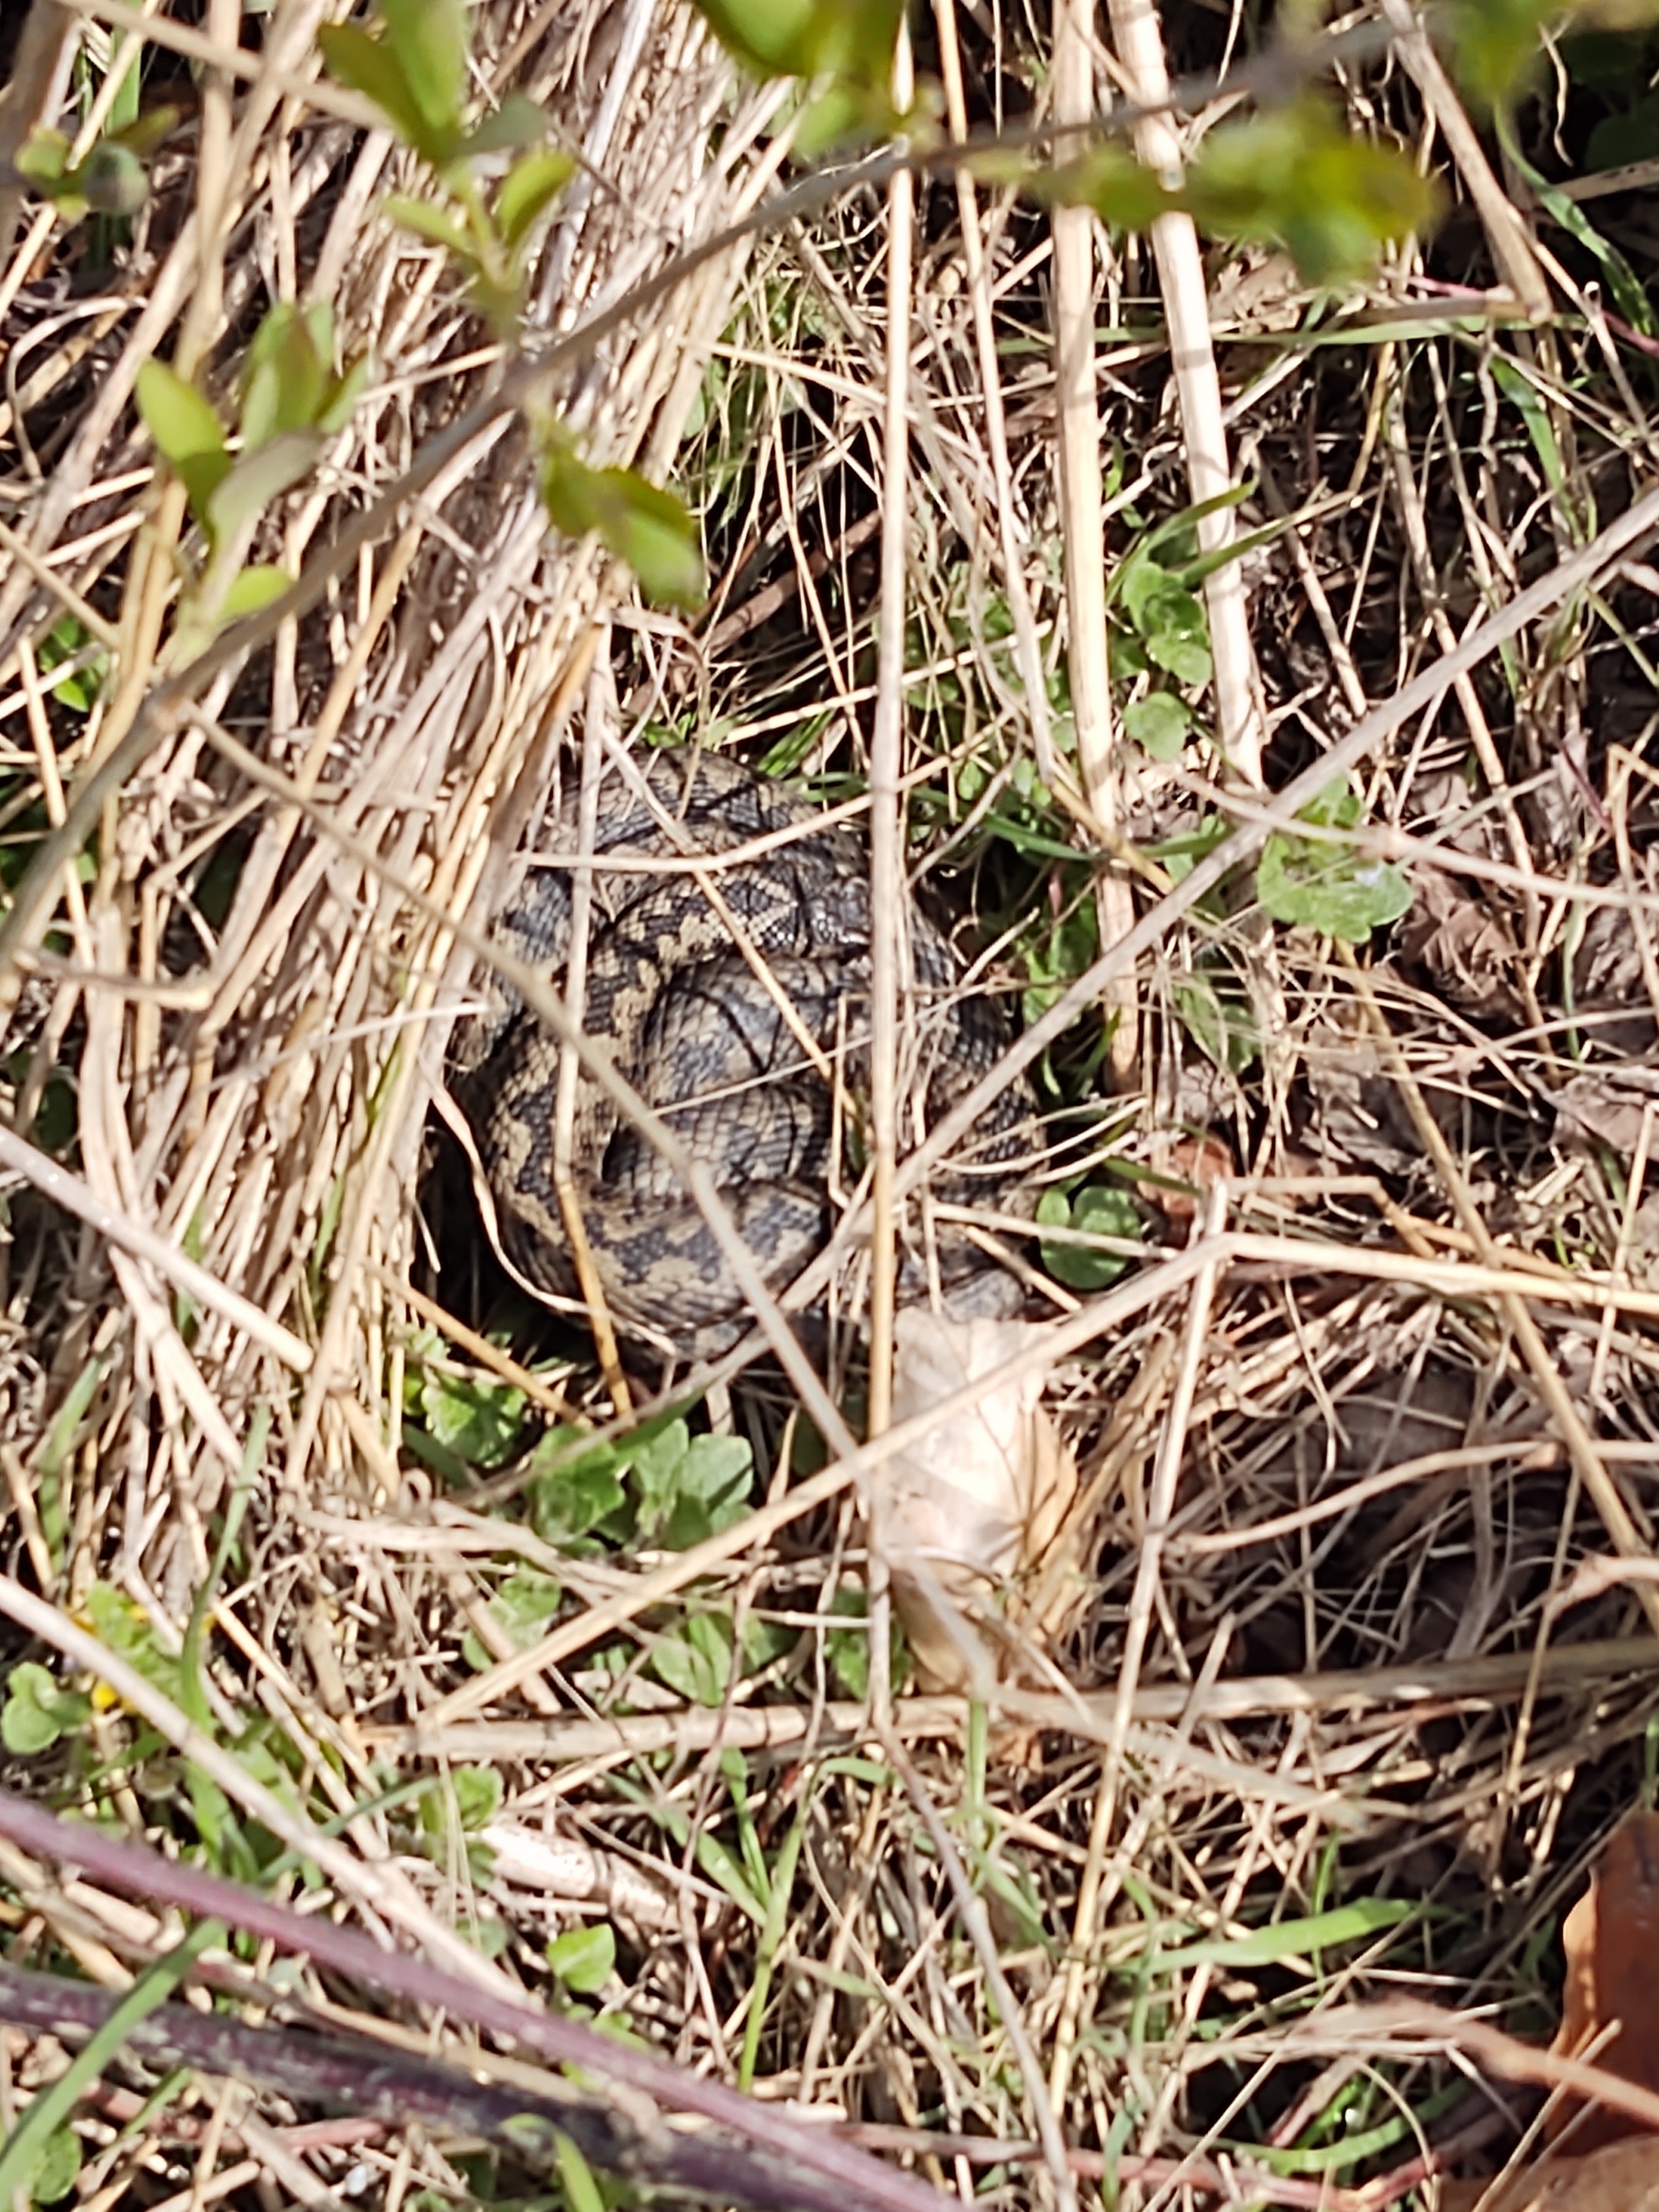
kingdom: Animalia
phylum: Chordata
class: Squamata
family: Viperidae
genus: Vipera
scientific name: Vipera berus
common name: Hugorm
